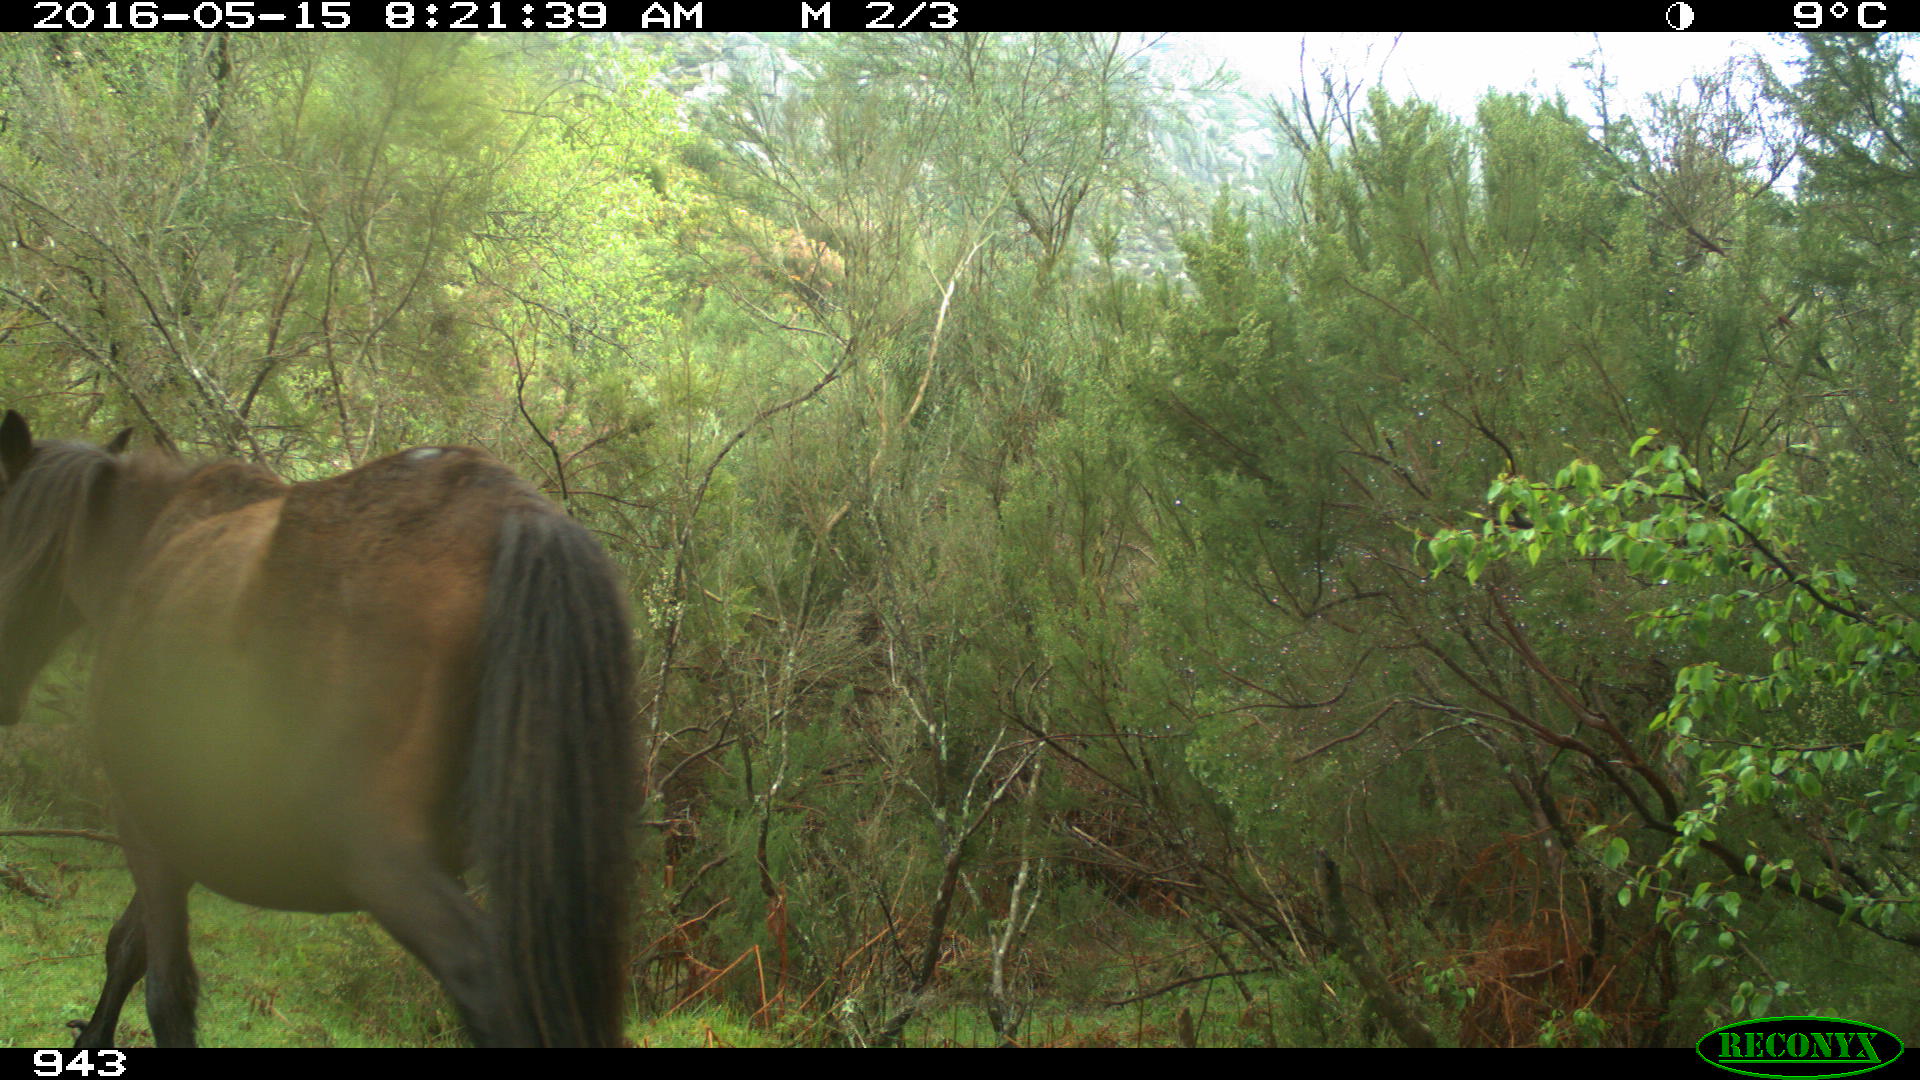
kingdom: Animalia
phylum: Chordata
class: Mammalia
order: Perissodactyla
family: Equidae
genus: Equus
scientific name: Equus caballus
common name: Horse
